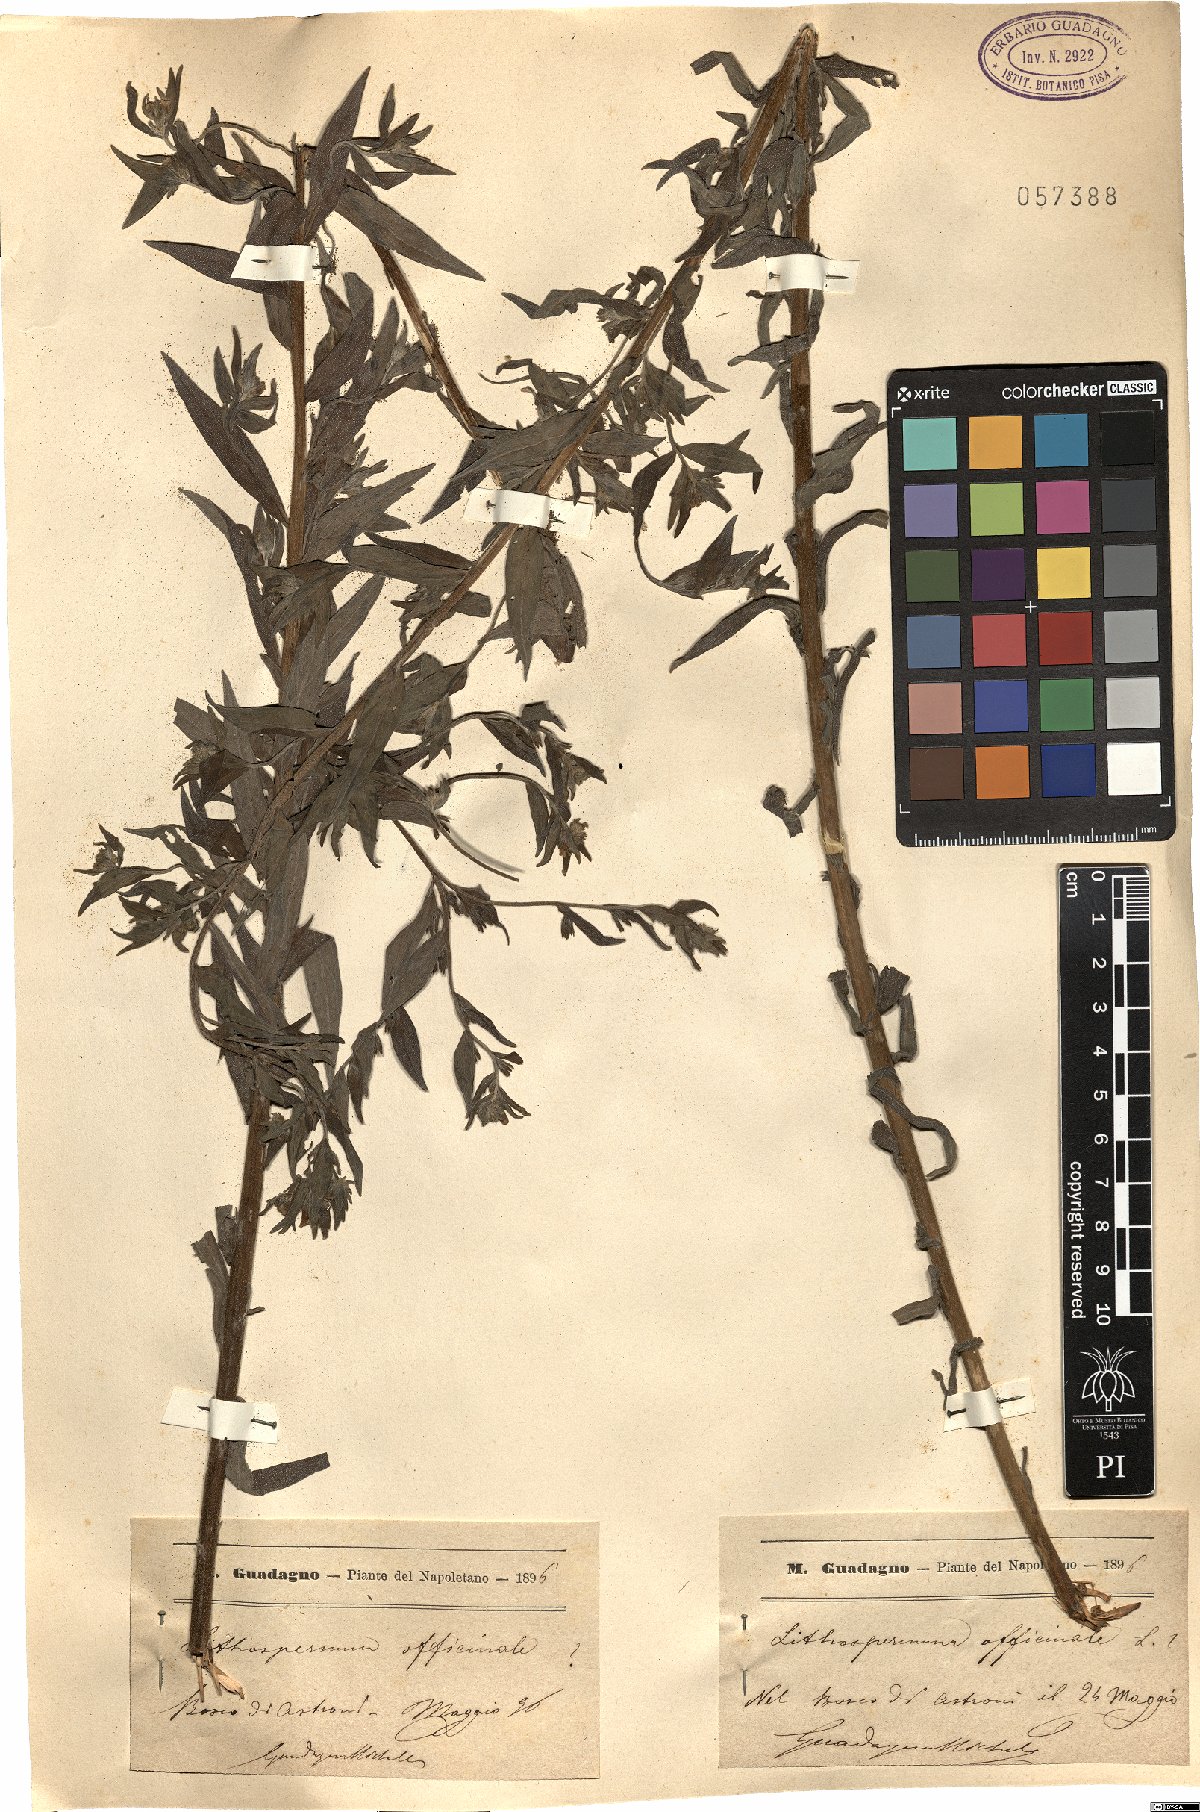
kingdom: Plantae
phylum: Tracheophyta
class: Magnoliopsida
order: Boraginales
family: Boraginaceae
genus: Lithospermum
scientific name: Lithospermum officinale
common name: Common gromwell
